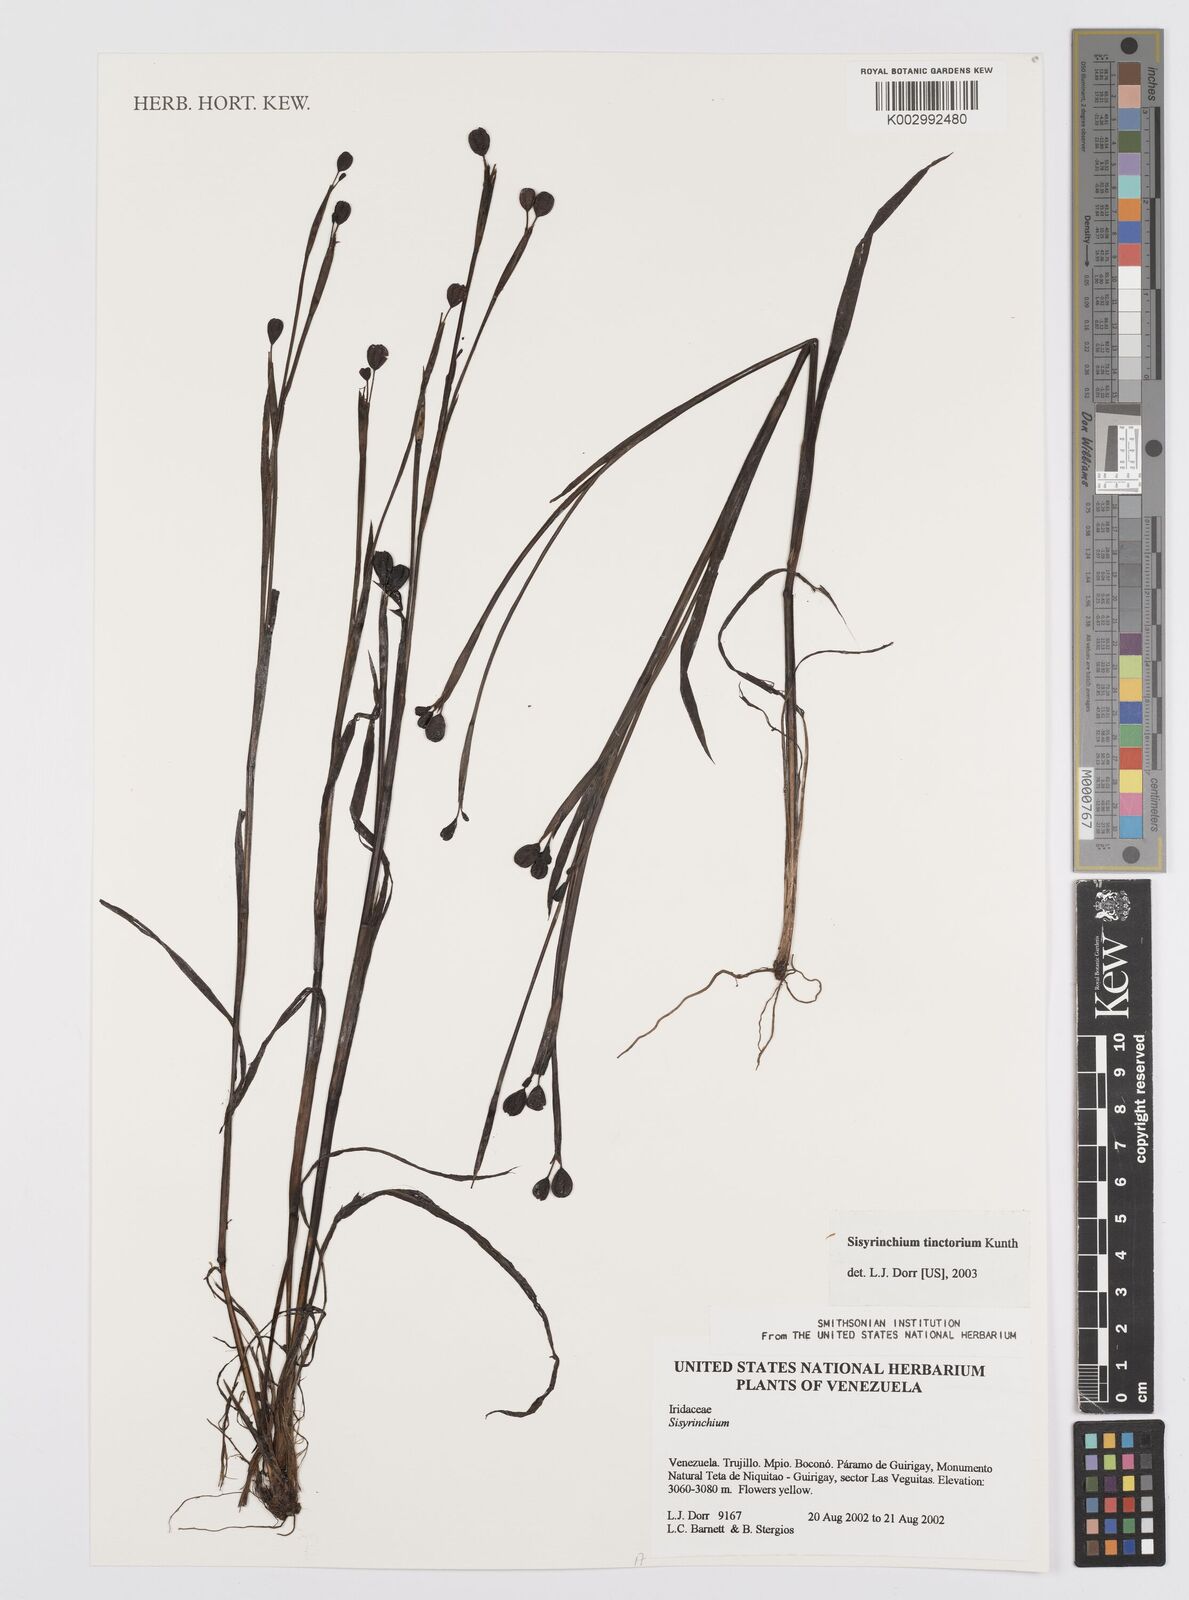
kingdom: Plantae
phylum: Tracheophyta
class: Liliopsida
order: Asparagales
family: Iridaceae
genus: Sisyrinchium
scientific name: Sisyrinchium tinctorium
